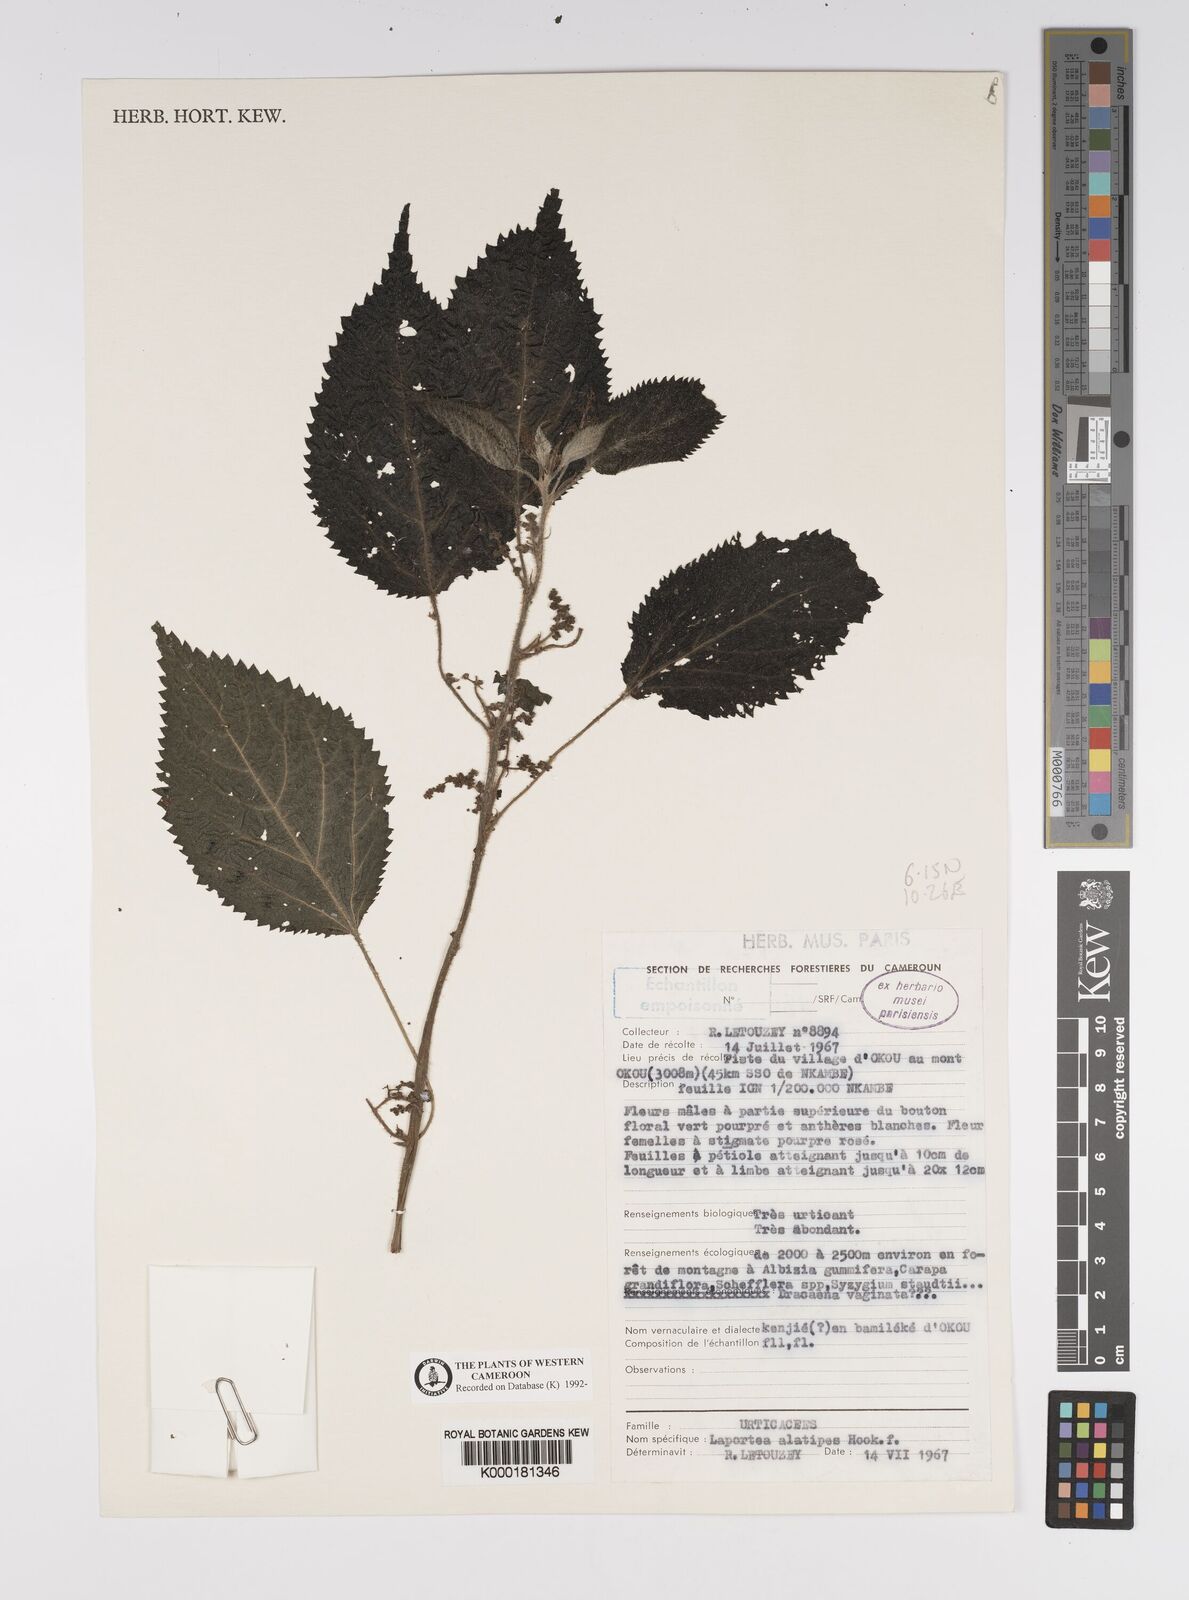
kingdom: Plantae
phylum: Tracheophyta
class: Magnoliopsida
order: Rosales
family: Urticaceae
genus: Laportea
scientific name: Laportea alatipes
